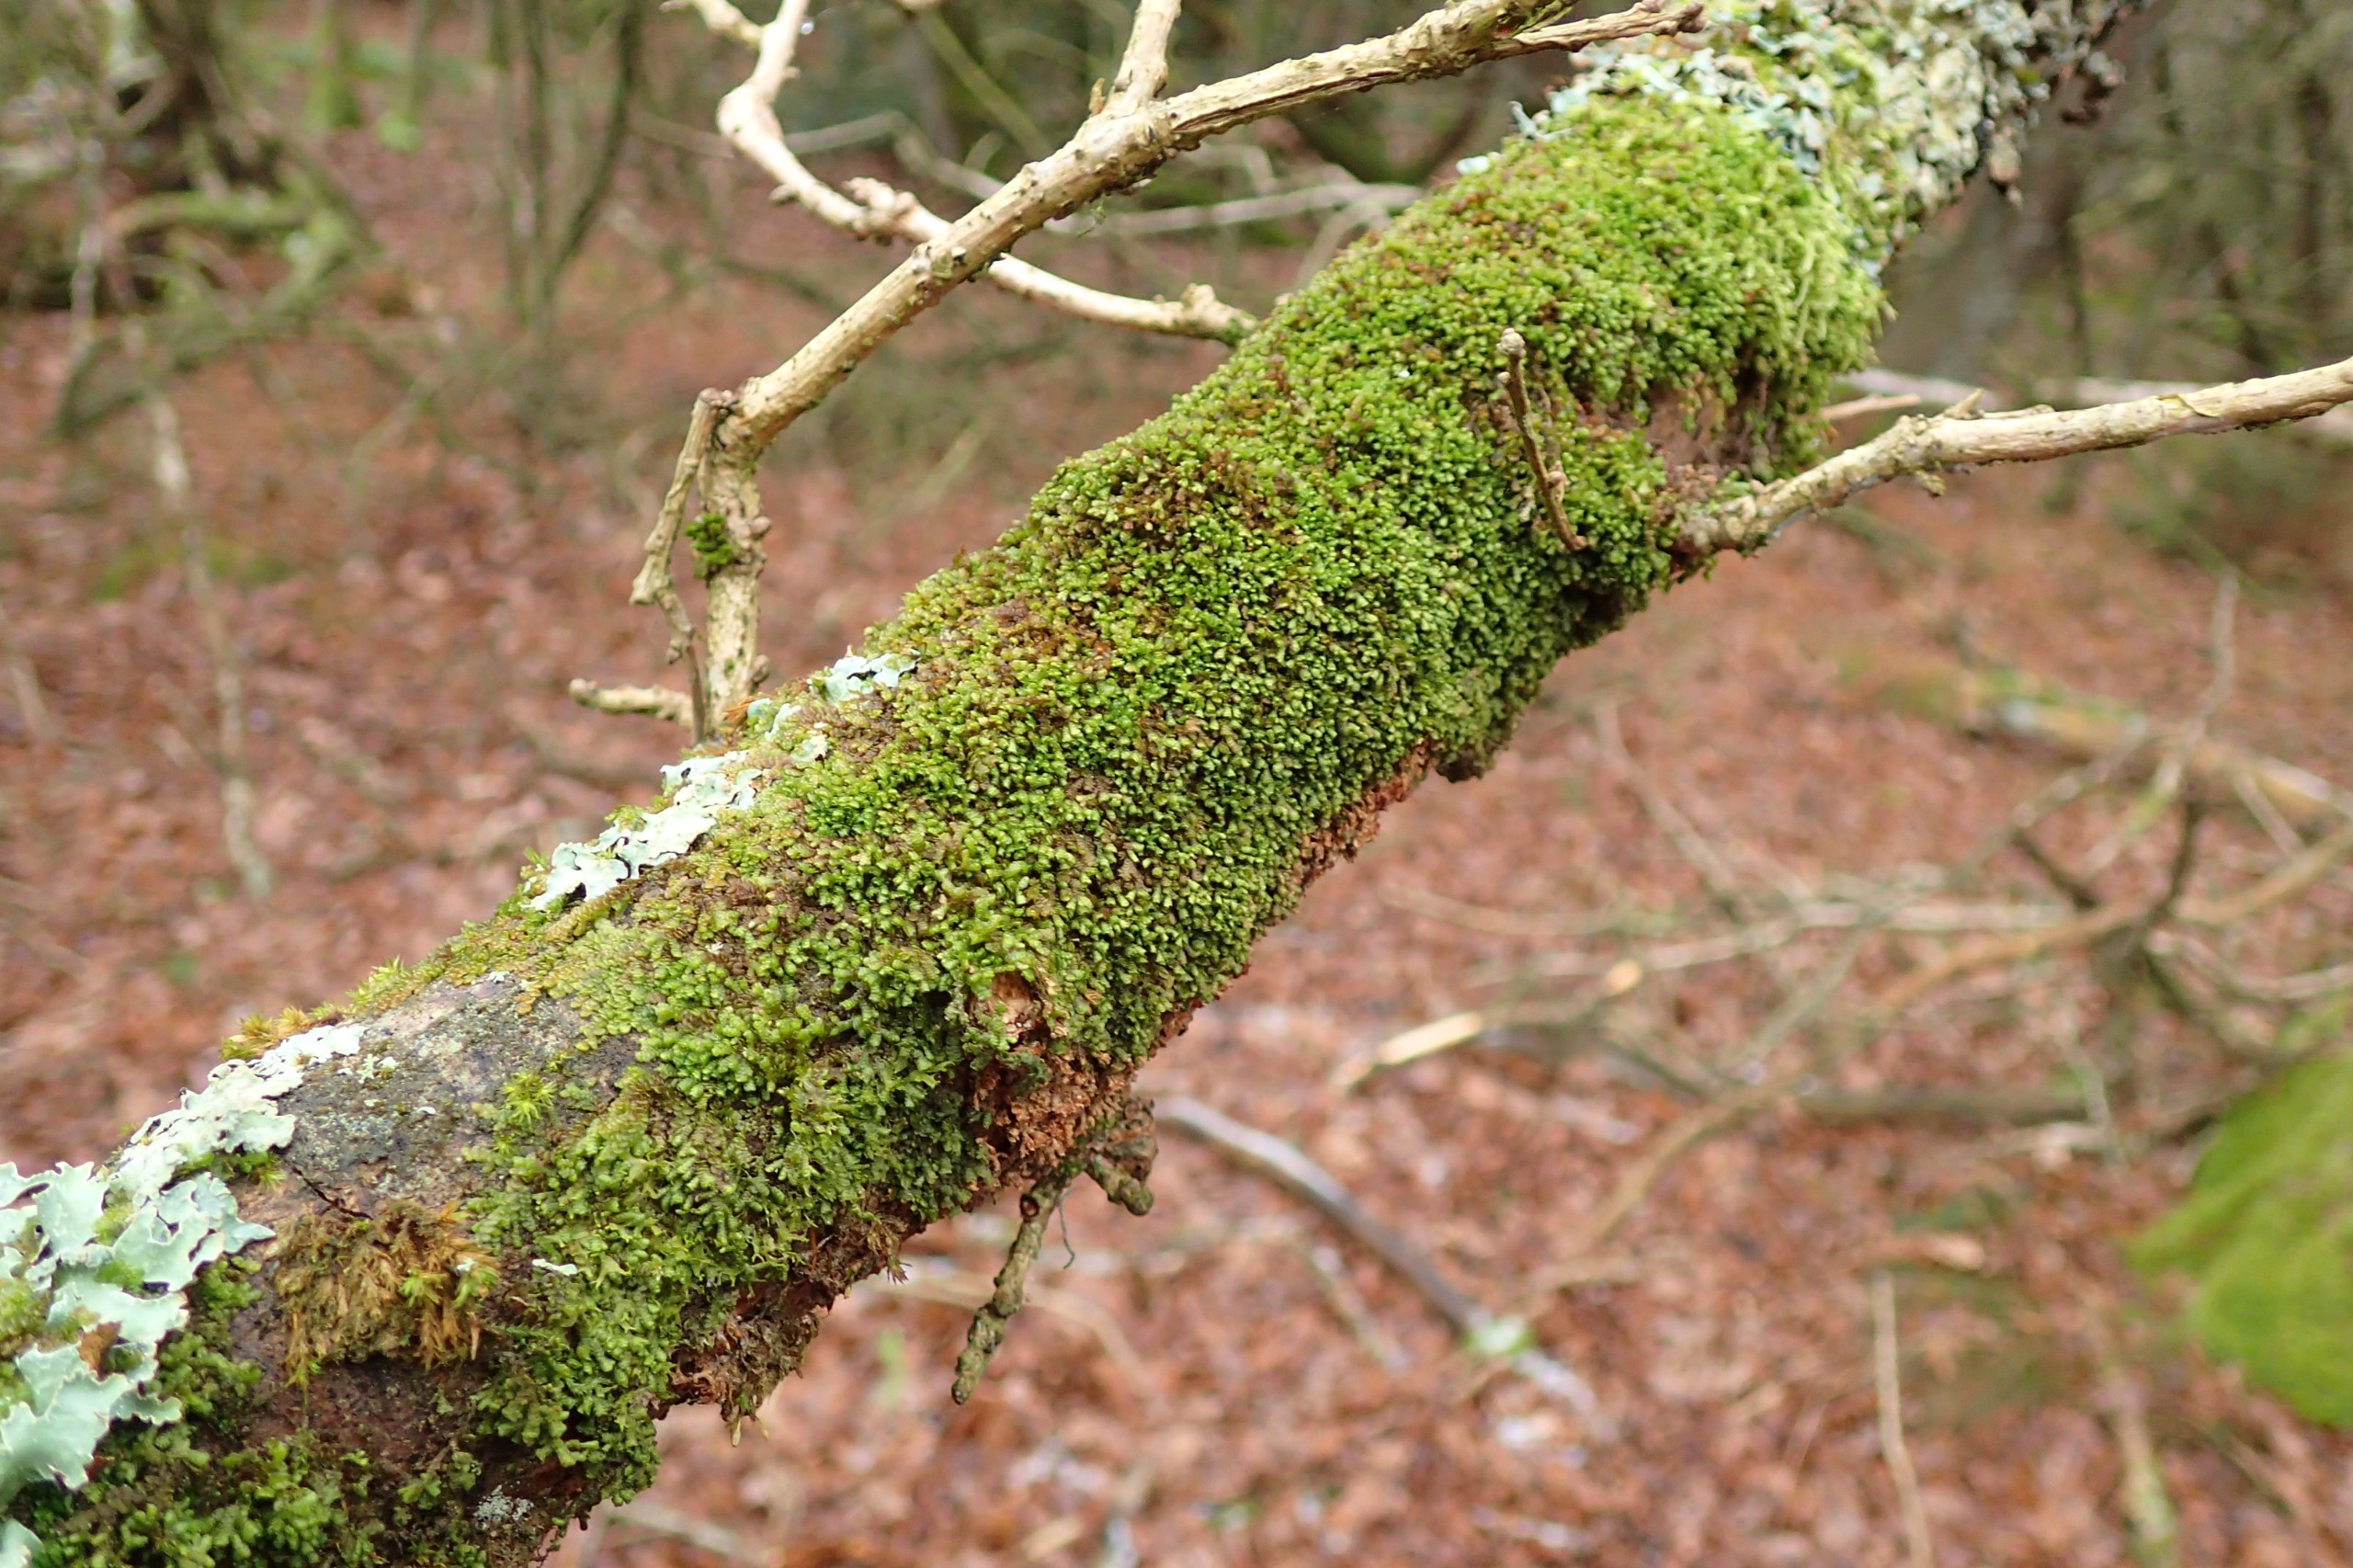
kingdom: Plantae
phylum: Marchantiophyta
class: Jungermanniopsida
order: Porellales
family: Frullaniaceae
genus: Frullania
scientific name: Frullania dilatata
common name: Mat bronzemos
